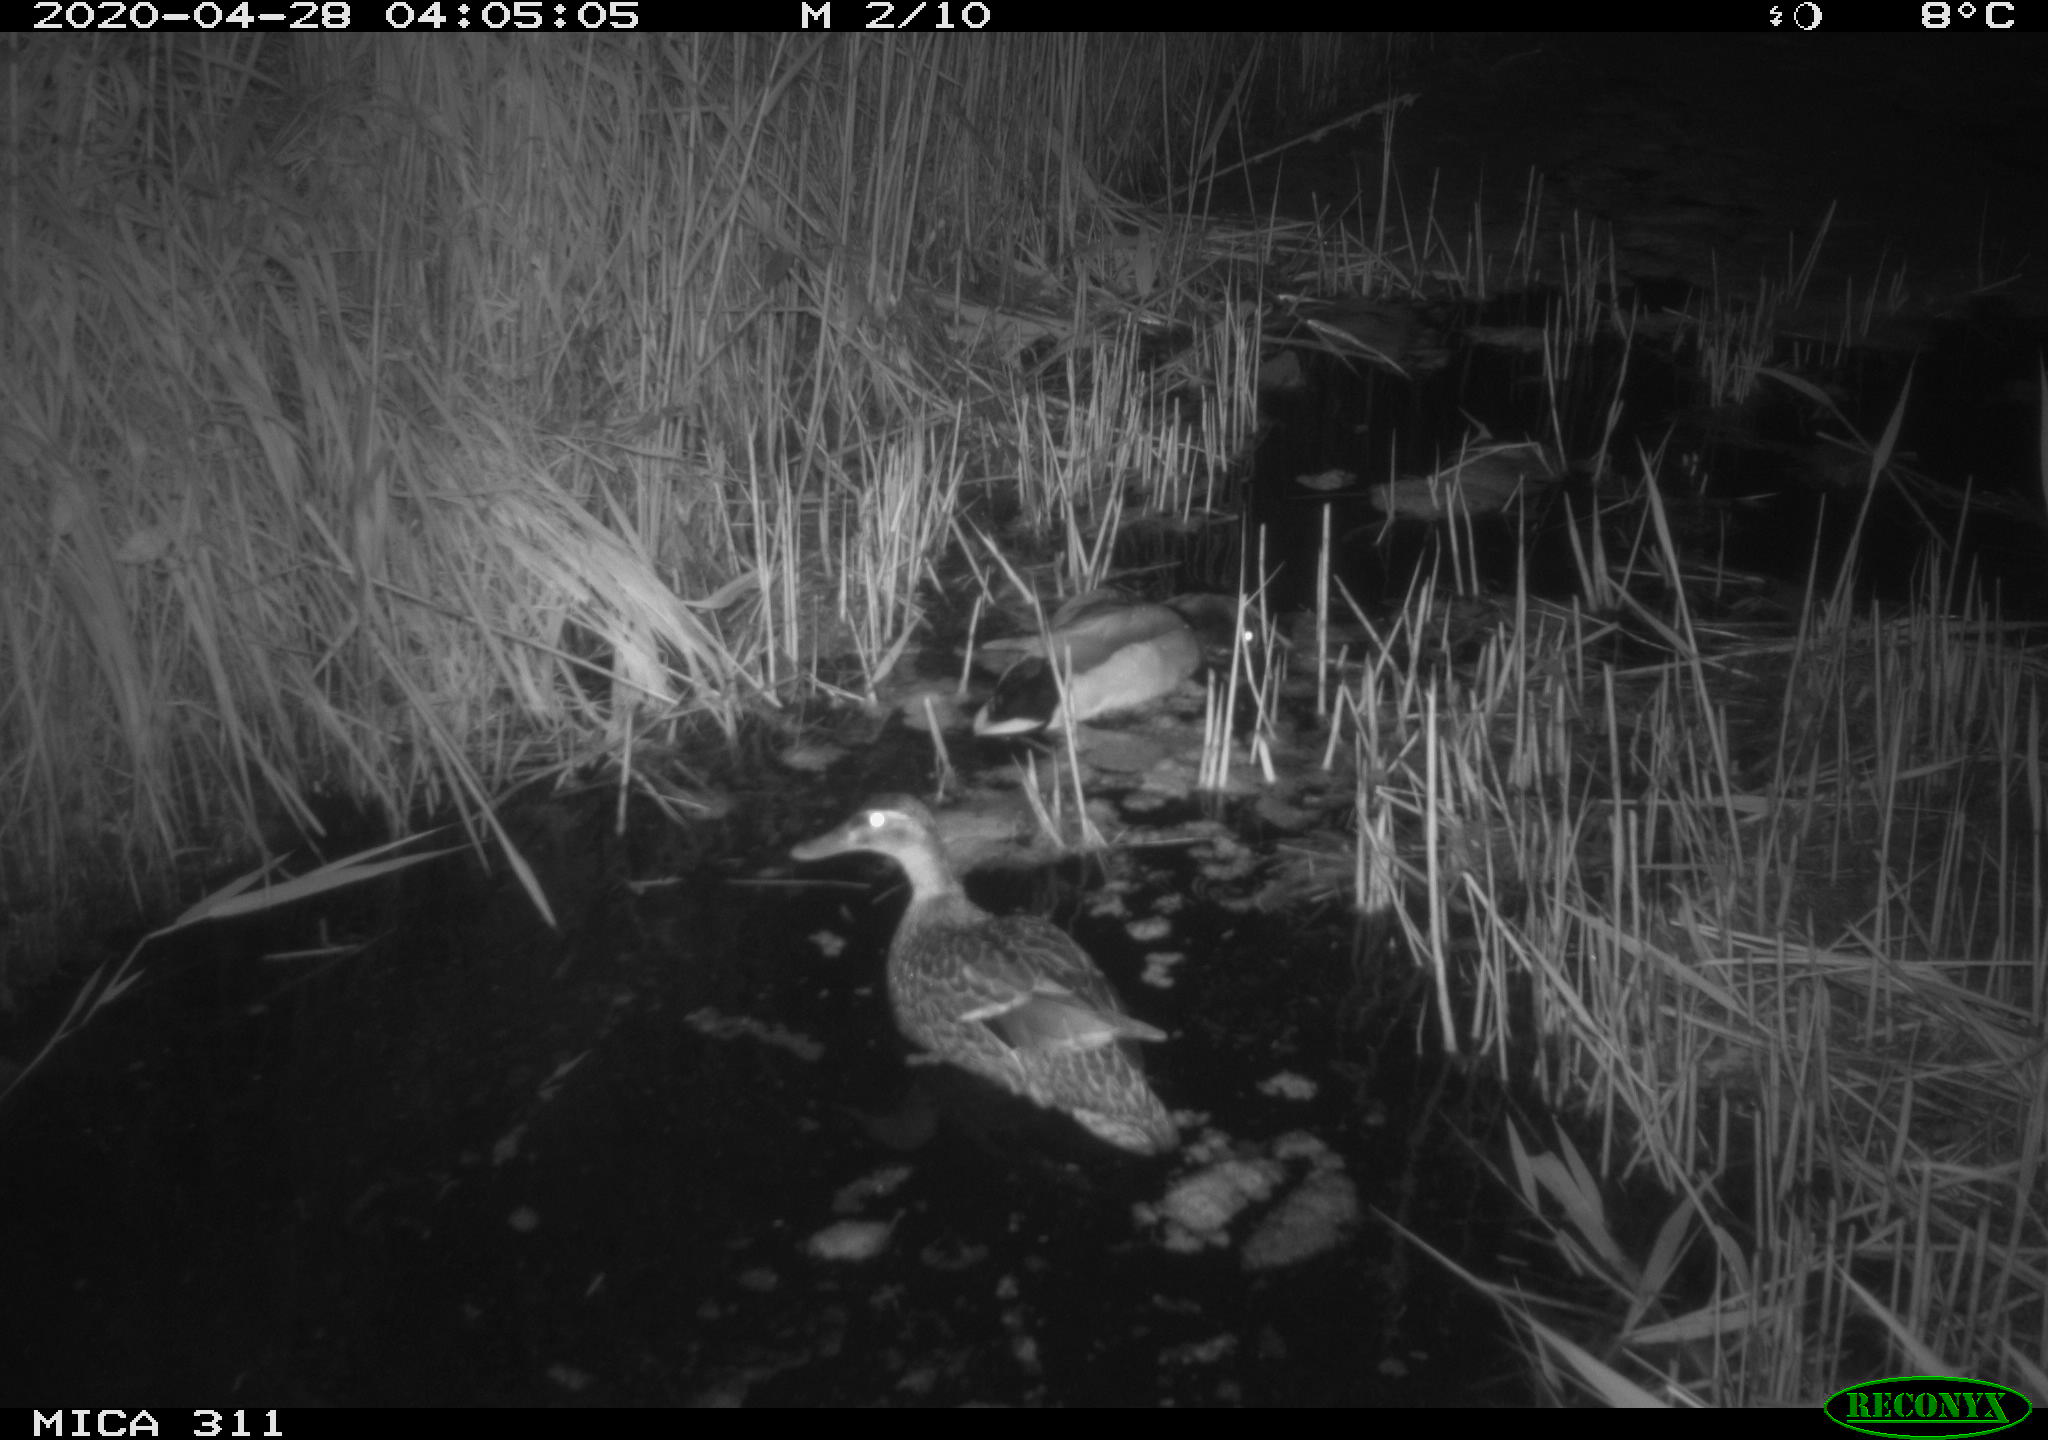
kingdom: Animalia
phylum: Chordata
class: Aves
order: Anseriformes
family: Anatidae
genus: Anas
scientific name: Anas platyrhynchos
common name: Mallard
